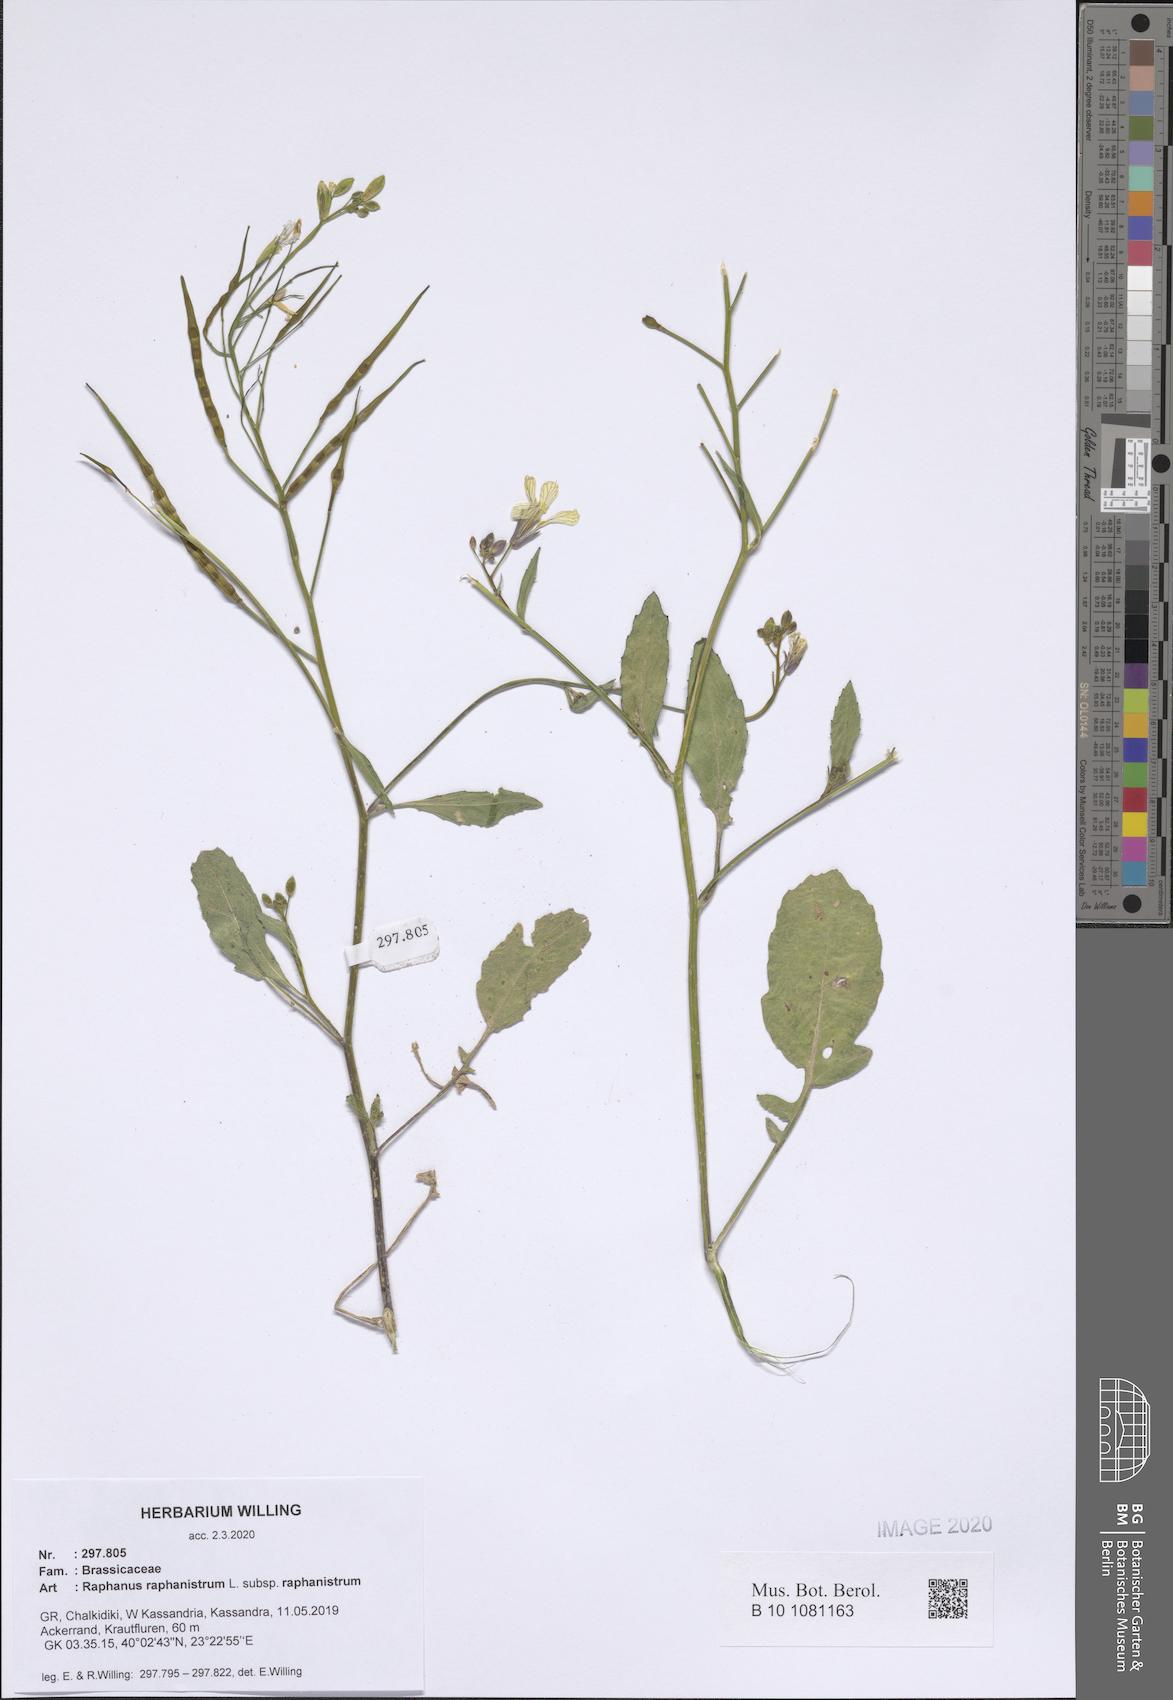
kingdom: Plantae
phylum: Tracheophyta
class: Magnoliopsida
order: Brassicales
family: Brassicaceae
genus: Raphanus
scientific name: Raphanus raphanistrum
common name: Wild radish
